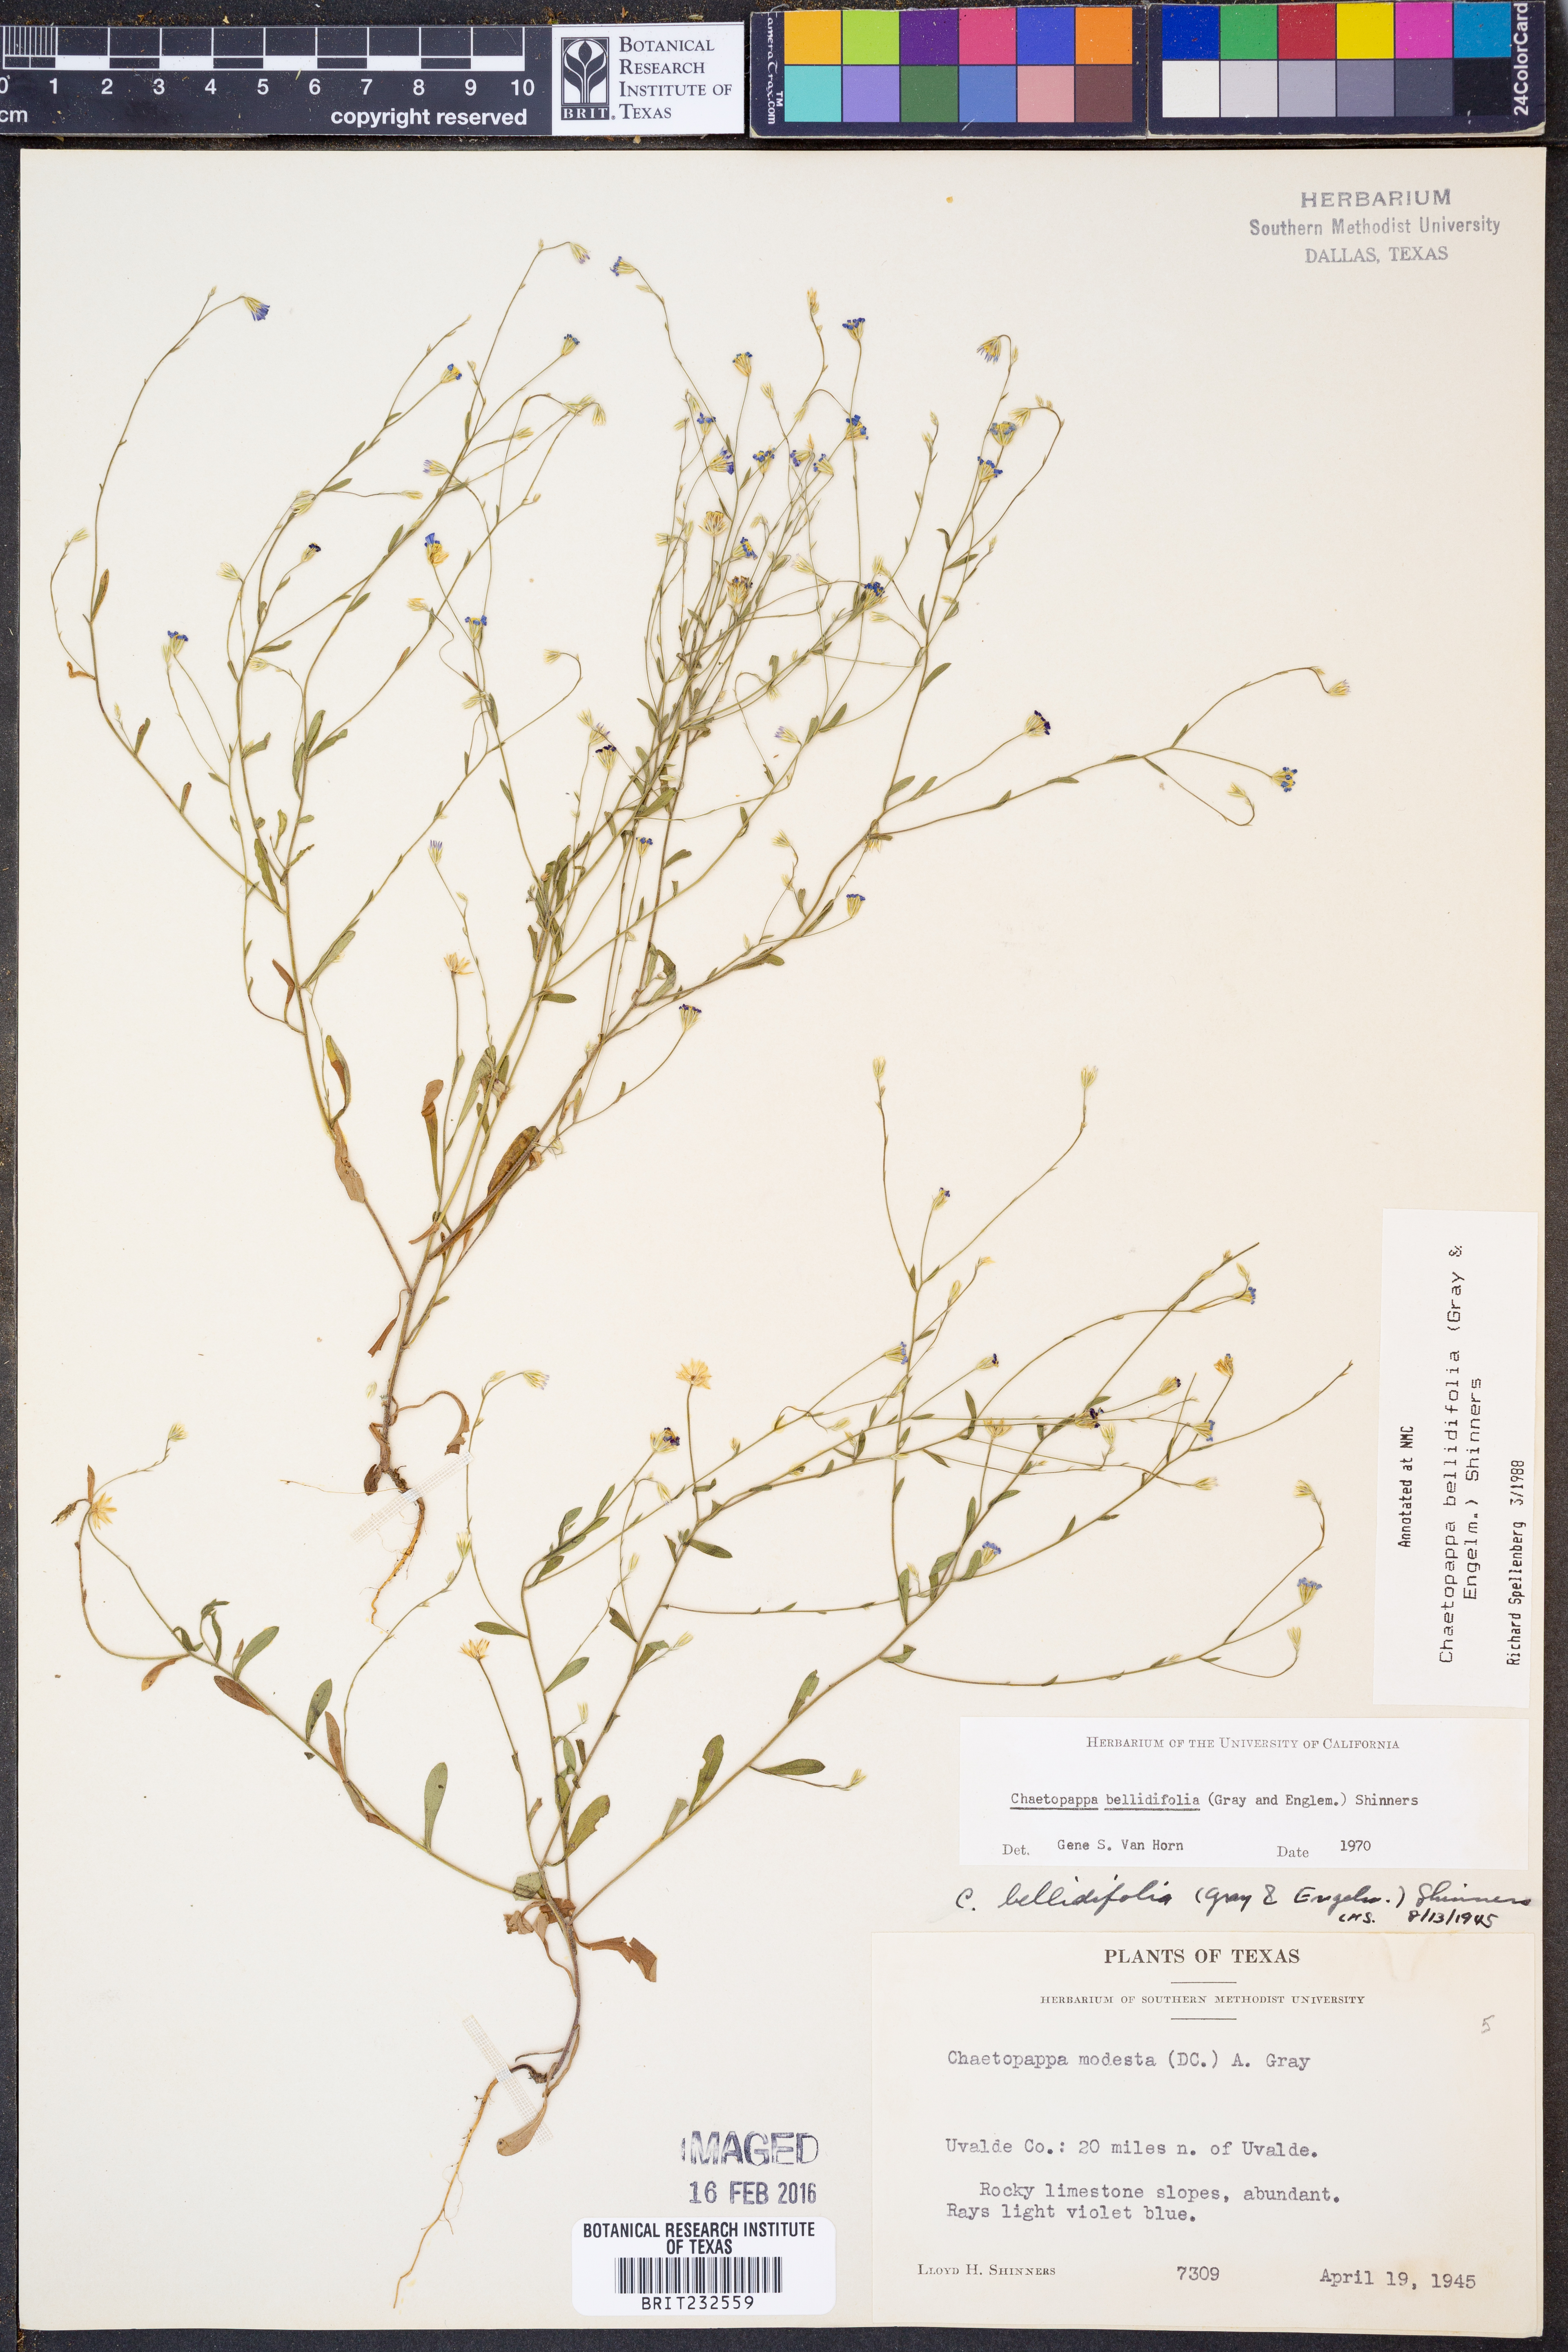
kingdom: Plantae
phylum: Tracheophyta
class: Magnoliopsida
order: Asterales
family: Asteraceae
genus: Chaetopappa
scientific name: Chaetopappa bellidifolia
